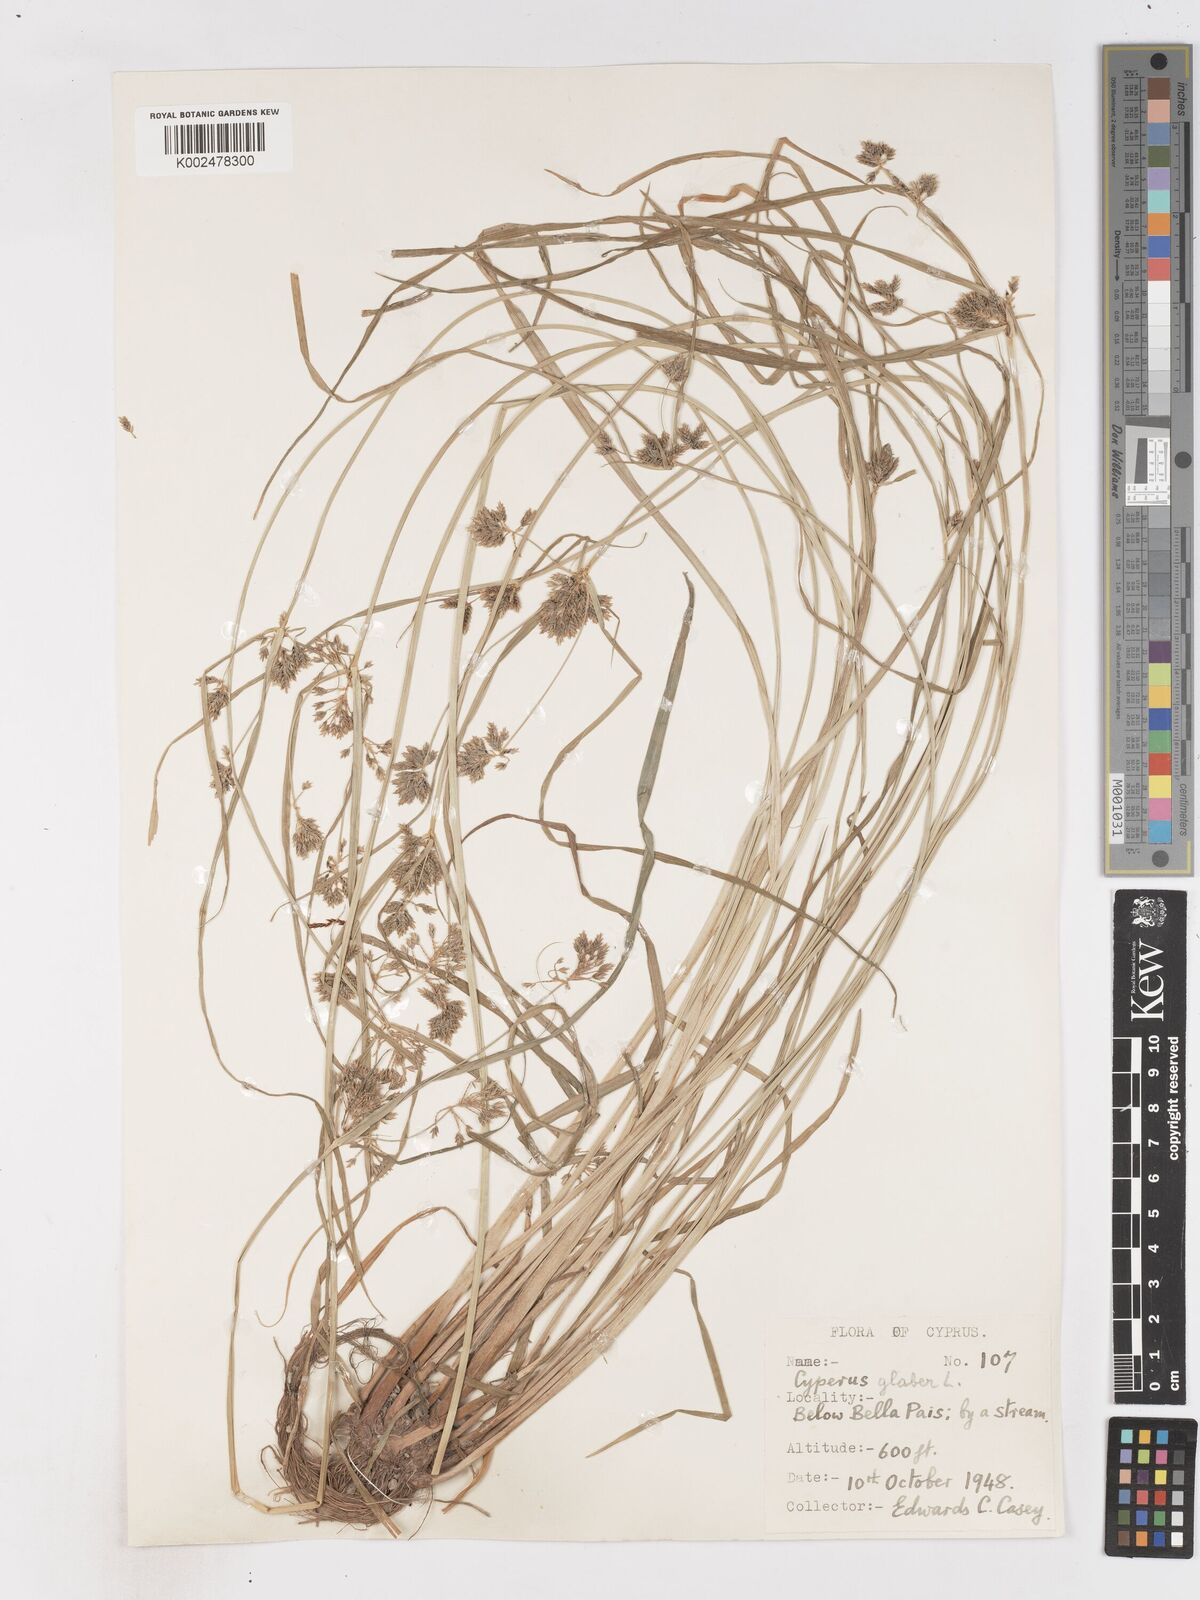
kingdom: Plantae
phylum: Tracheophyta
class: Liliopsida
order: Poales
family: Cyperaceae
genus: Cyperus
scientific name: Cyperus glaber
